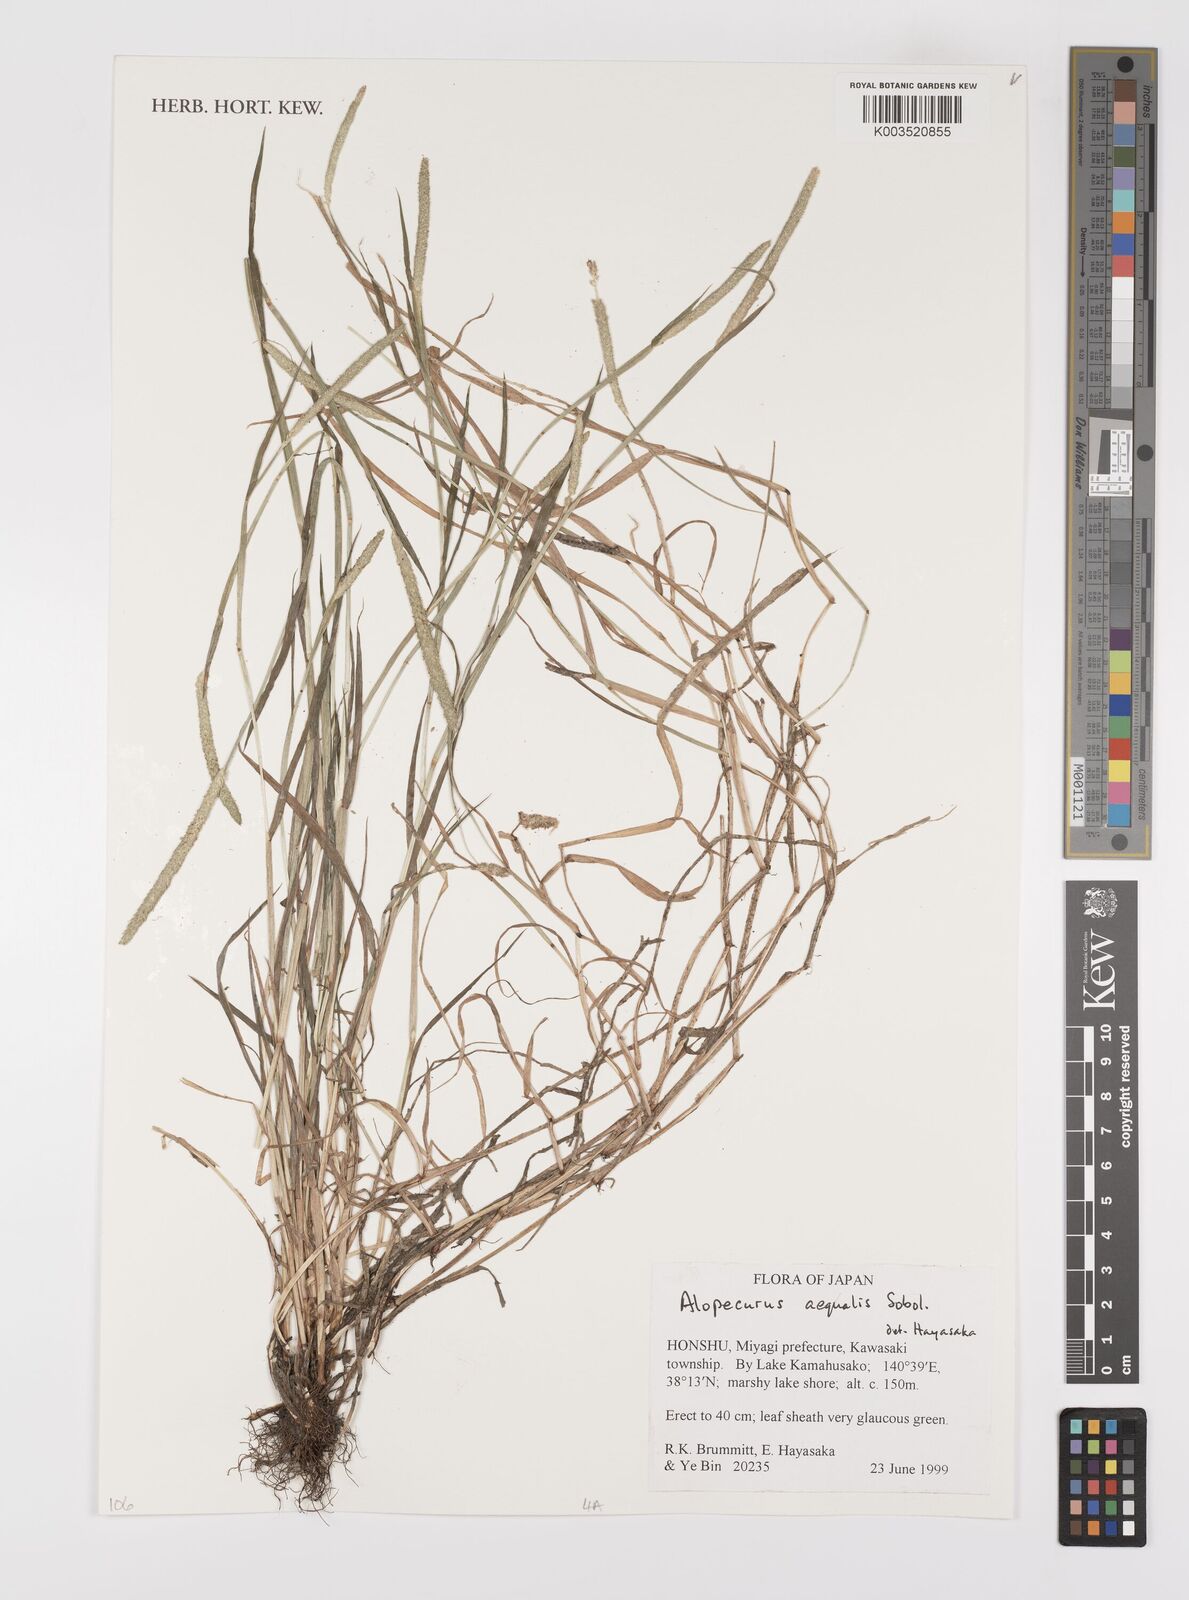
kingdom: Plantae
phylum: Tracheophyta
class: Liliopsida
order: Poales
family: Poaceae
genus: Alopecurus
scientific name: Alopecurus aequalis
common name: Orange foxtail
